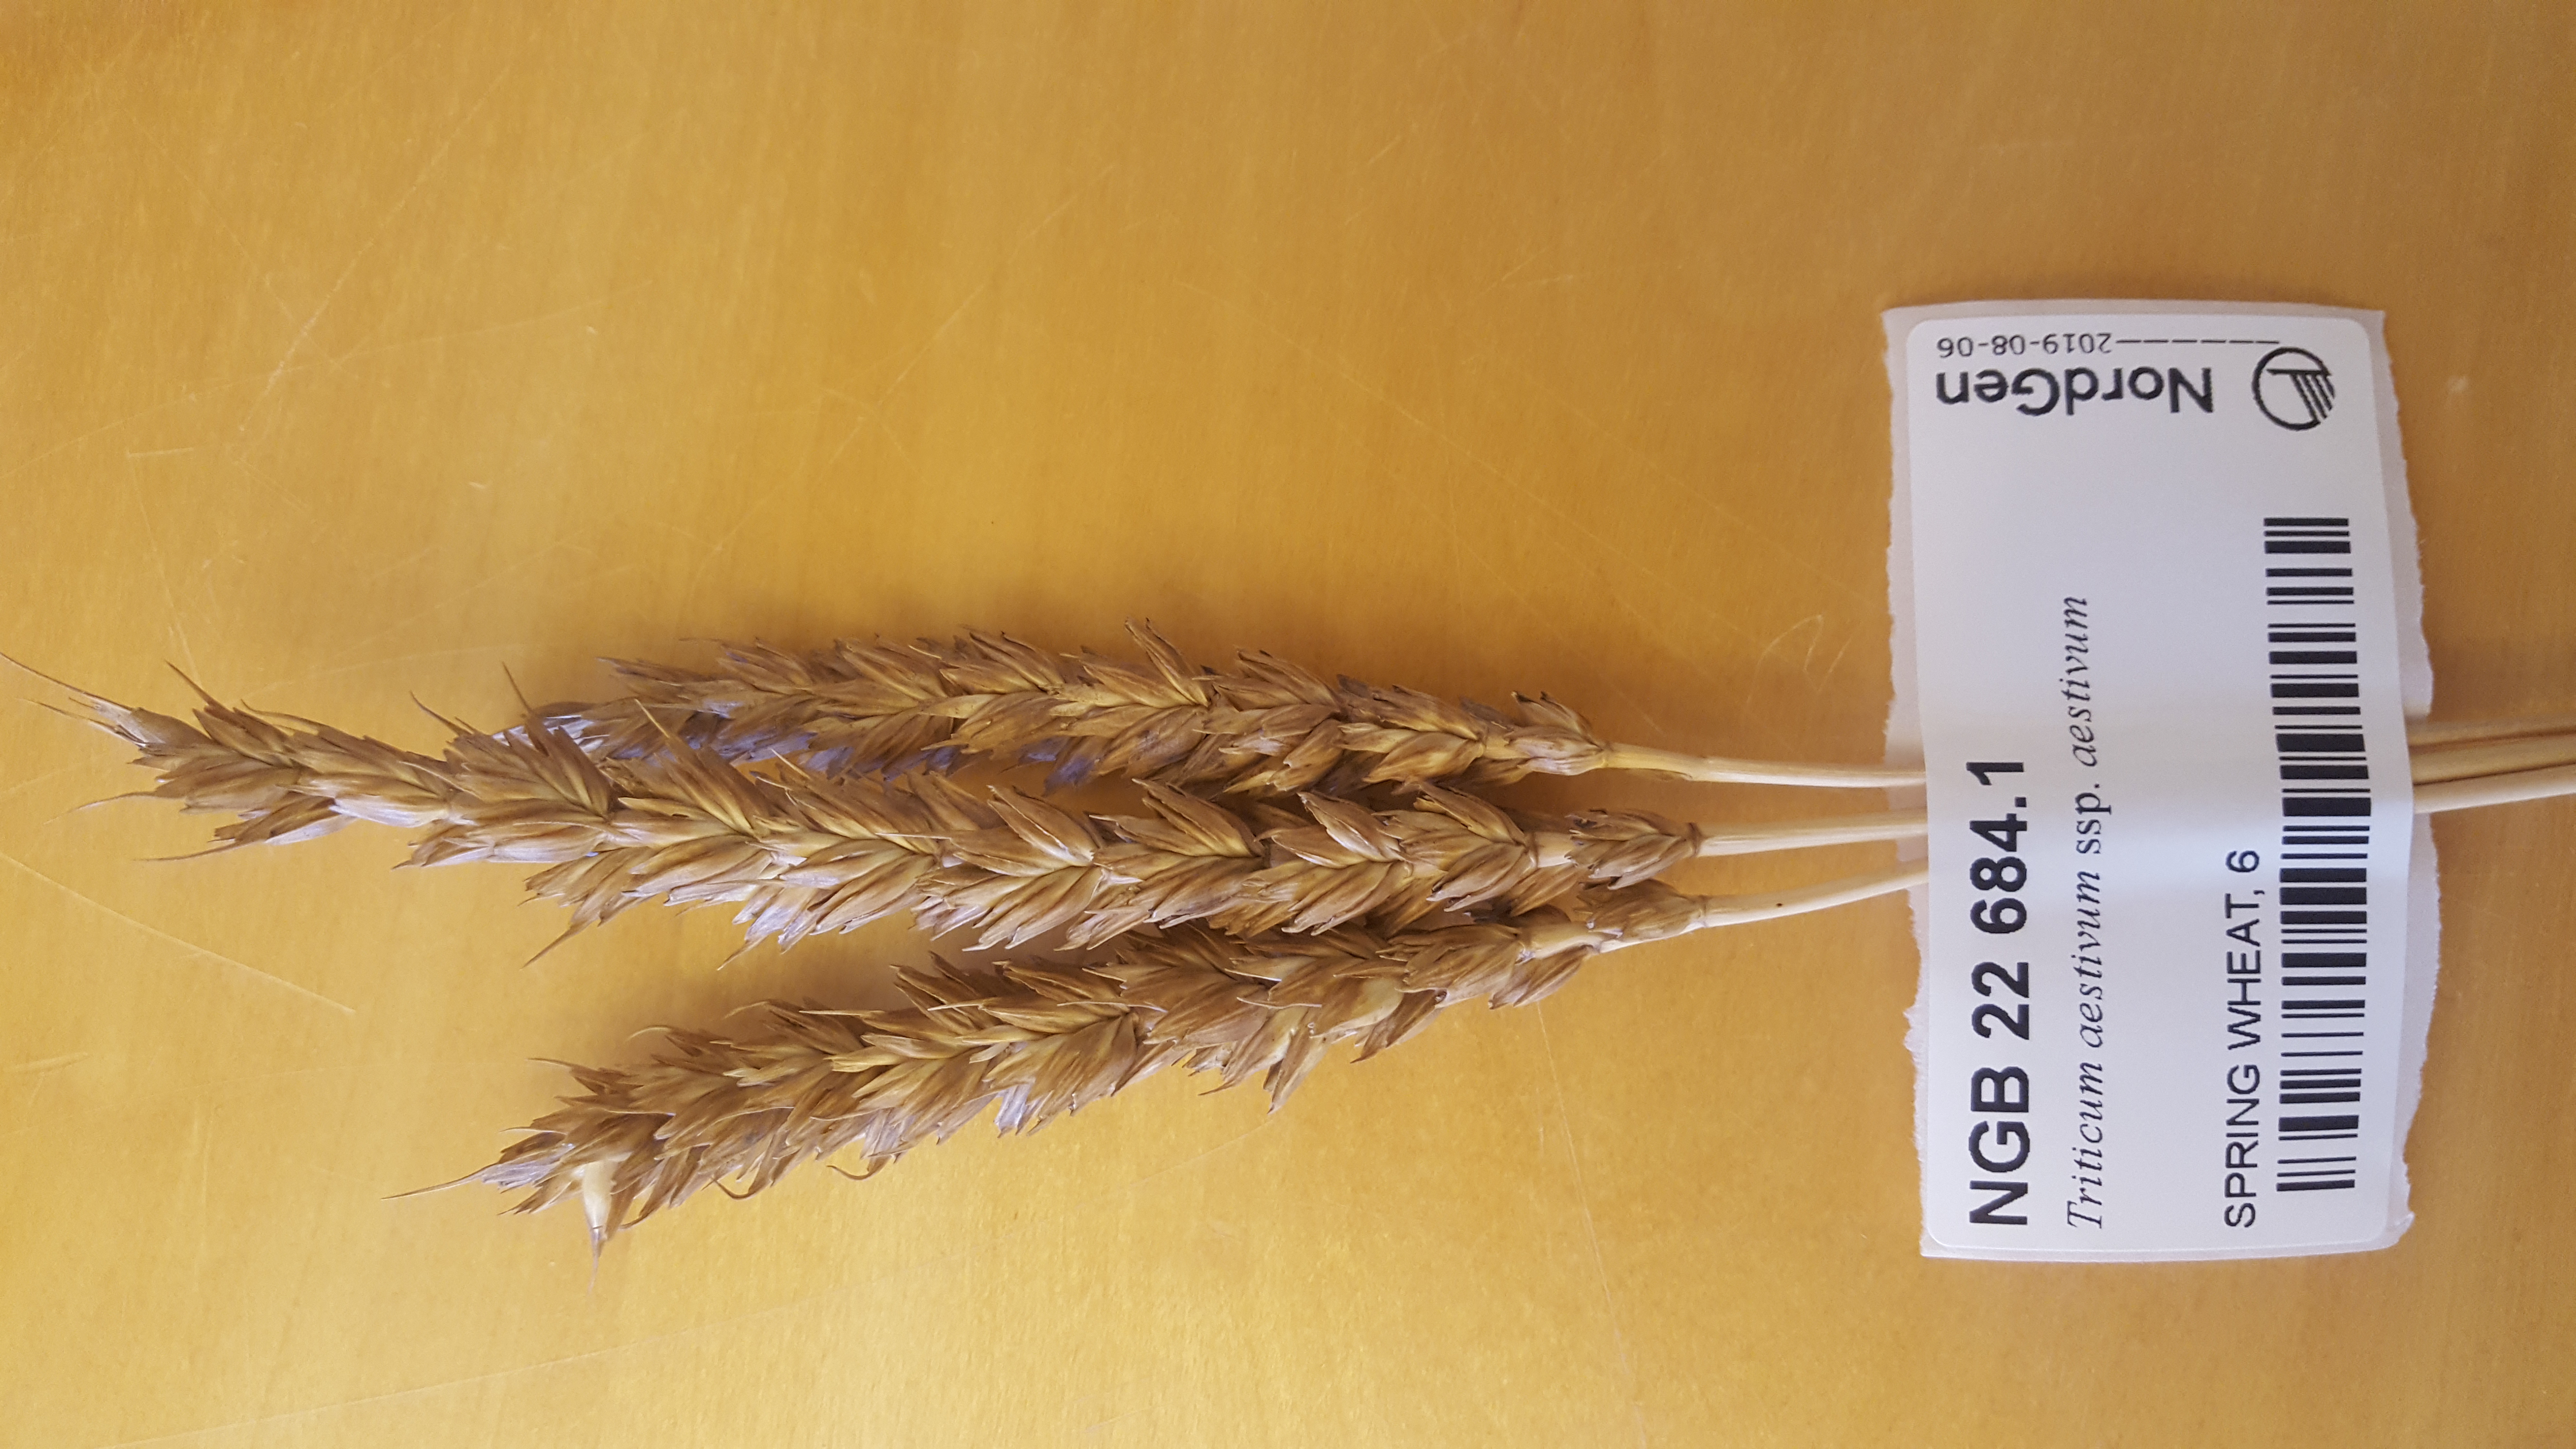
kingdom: Plantae
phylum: Tracheophyta
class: Liliopsida
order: Poales
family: Poaceae
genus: Triticum
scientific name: Triticum aestivum
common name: Common wheat
